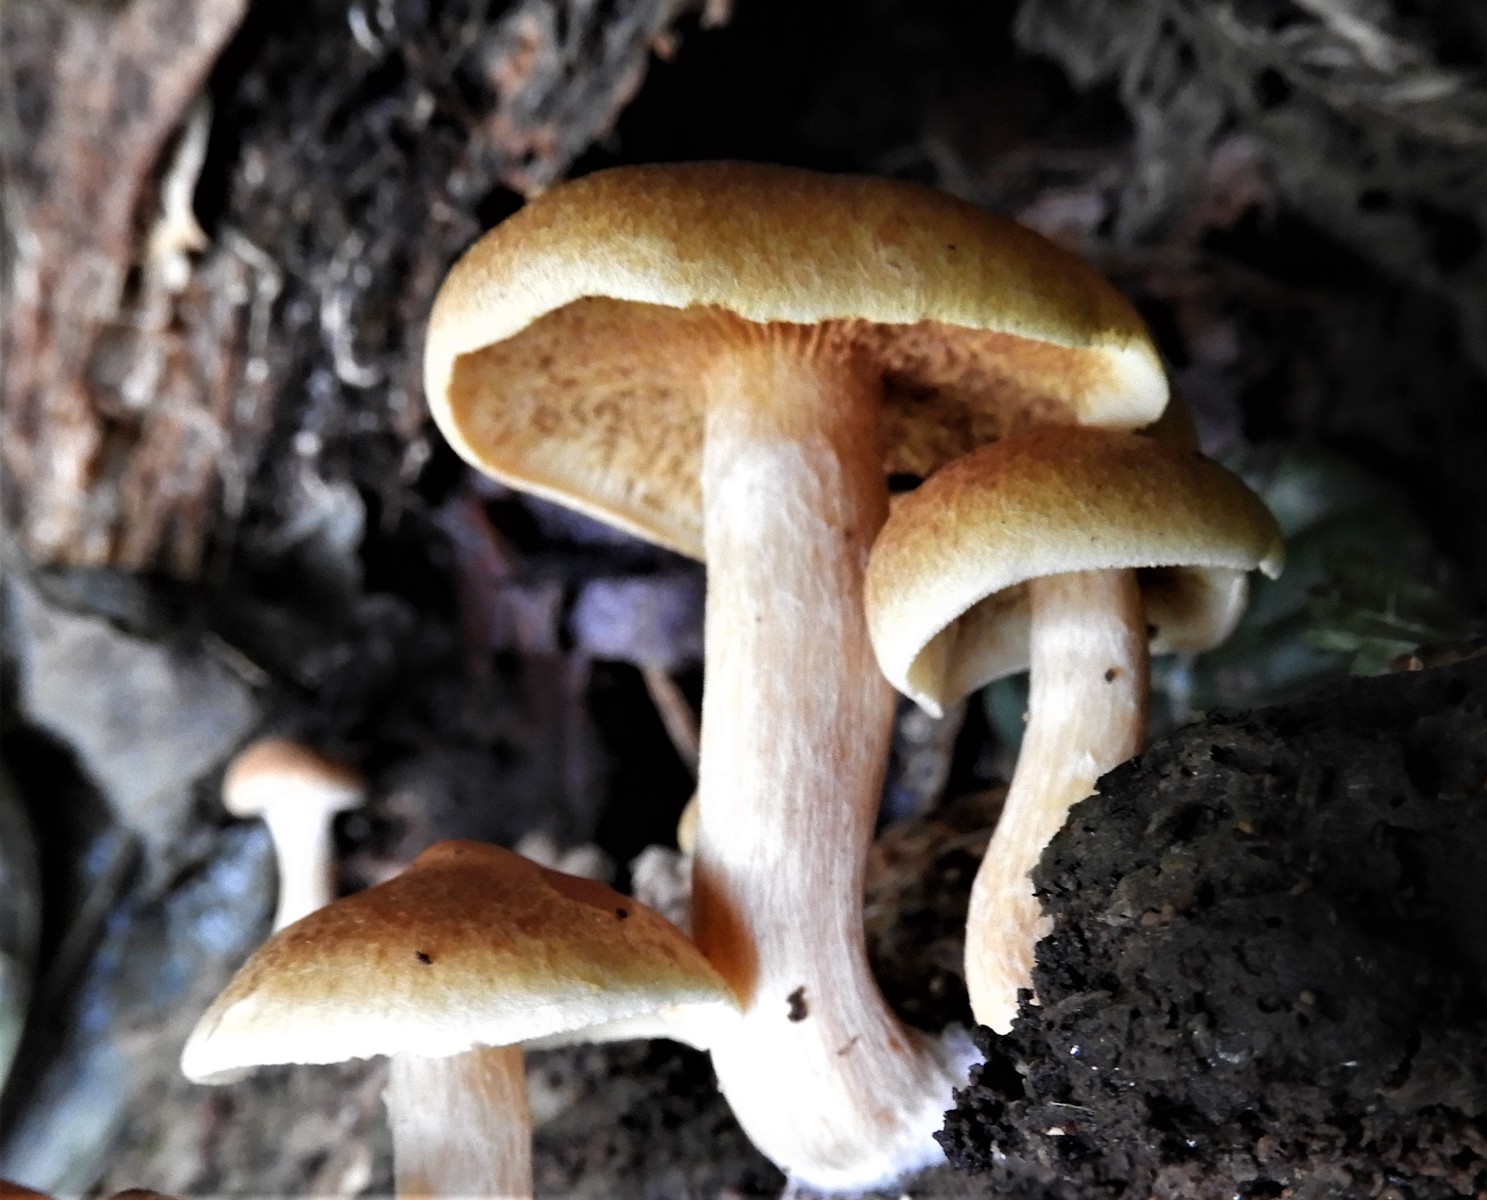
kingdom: Fungi
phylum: Basidiomycota
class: Agaricomycetes
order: Agaricales
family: Hymenogastraceae
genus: Gymnopilus
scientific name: Gymnopilus penetrans
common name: plettet flammehat
